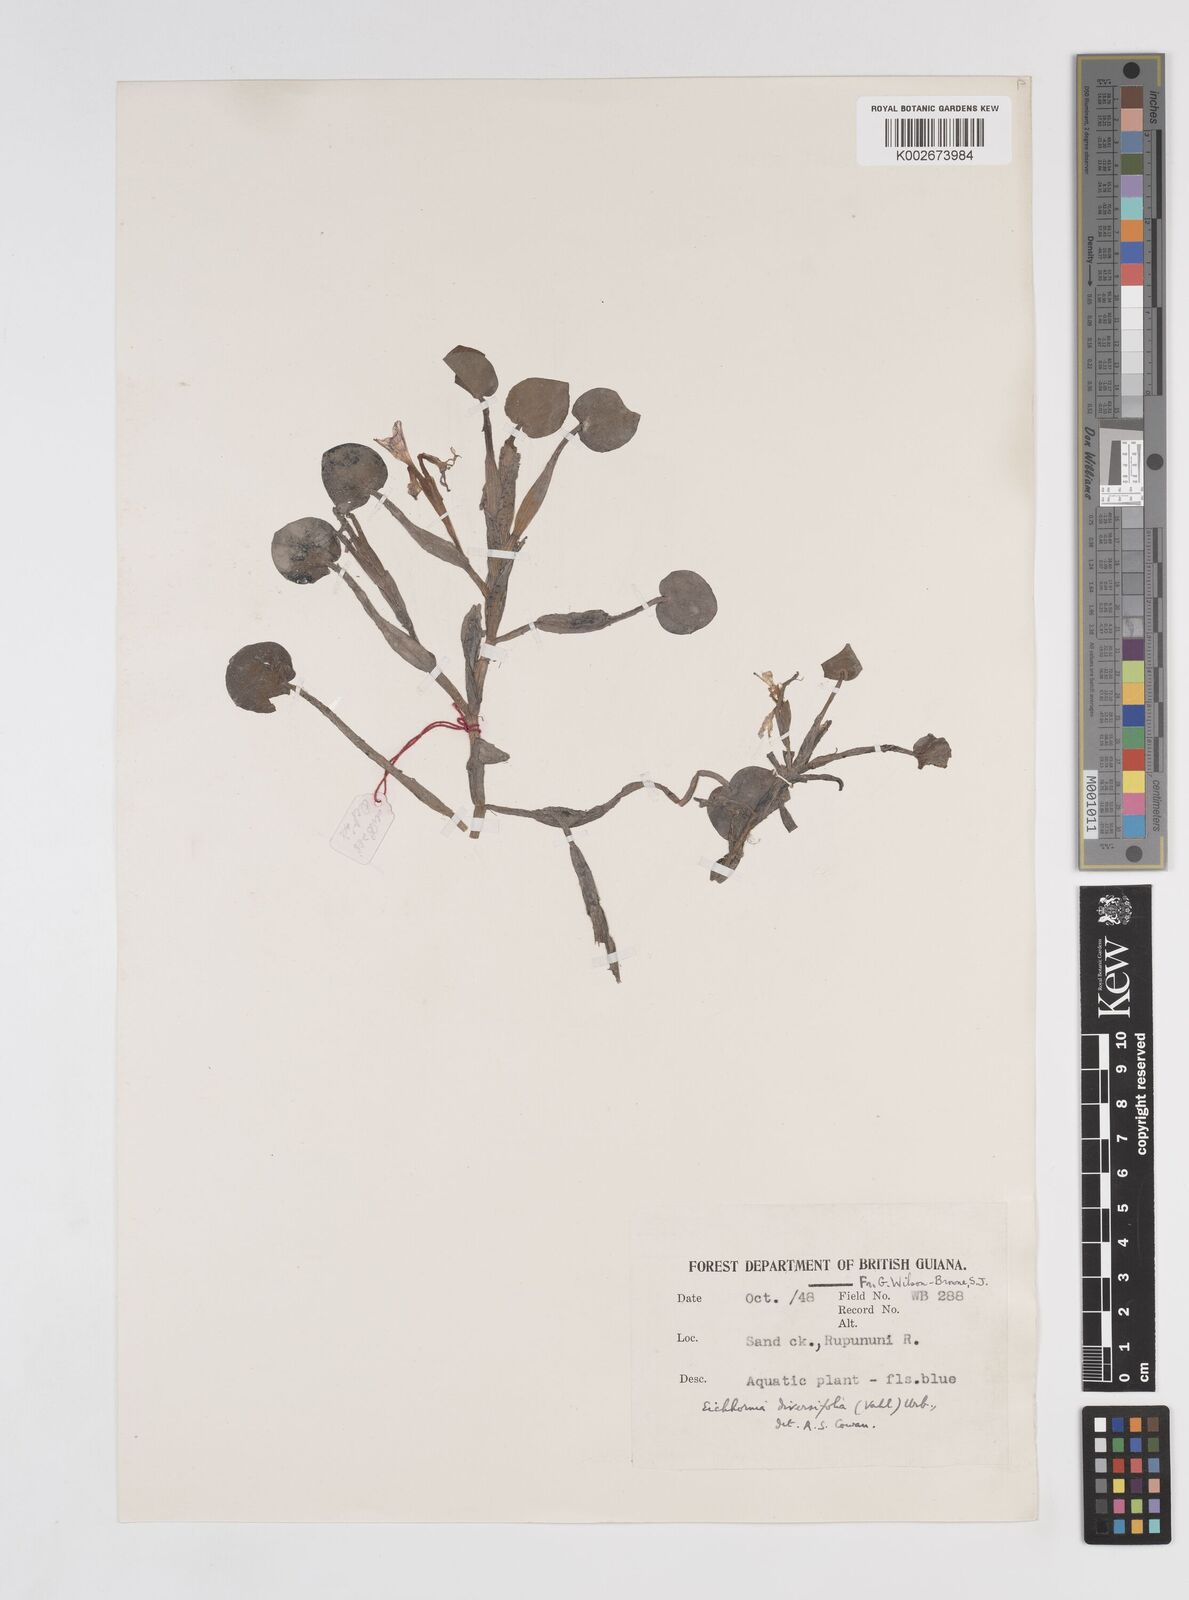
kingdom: Plantae
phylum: Tracheophyta
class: Liliopsida
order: Commelinales
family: Pontederiaceae
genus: Pontederia
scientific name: Pontederia diversifolia
